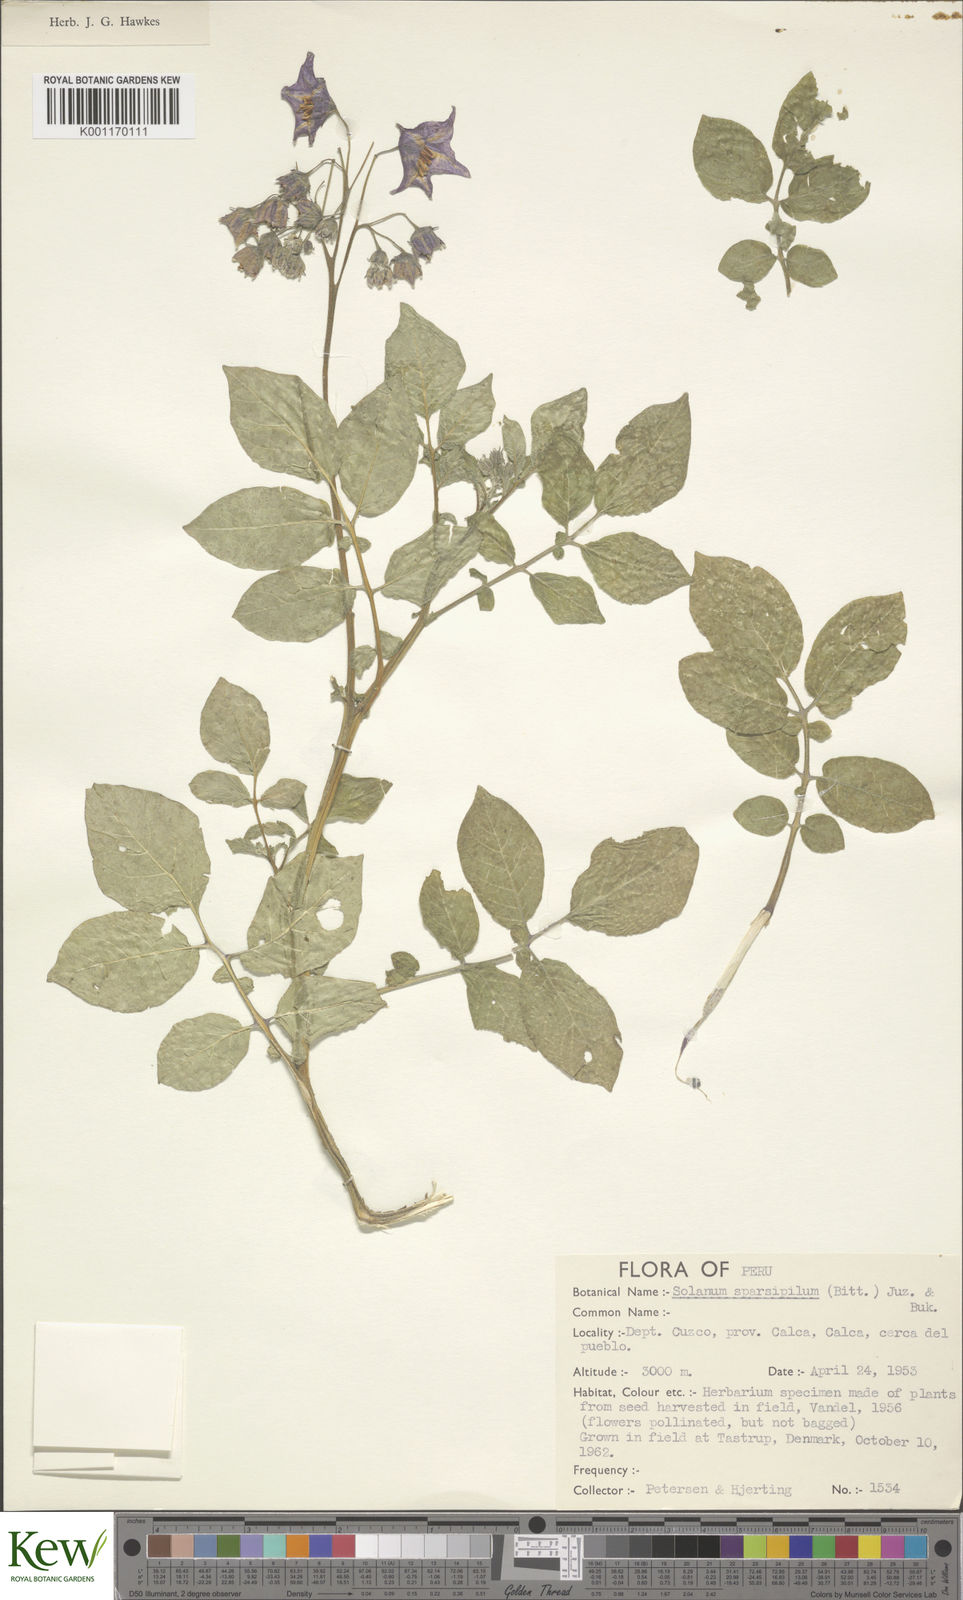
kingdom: Plantae
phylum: Tracheophyta
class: Magnoliopsida
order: Solanales
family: Solanaceae
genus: Solanum
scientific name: Solanum brevicaule
